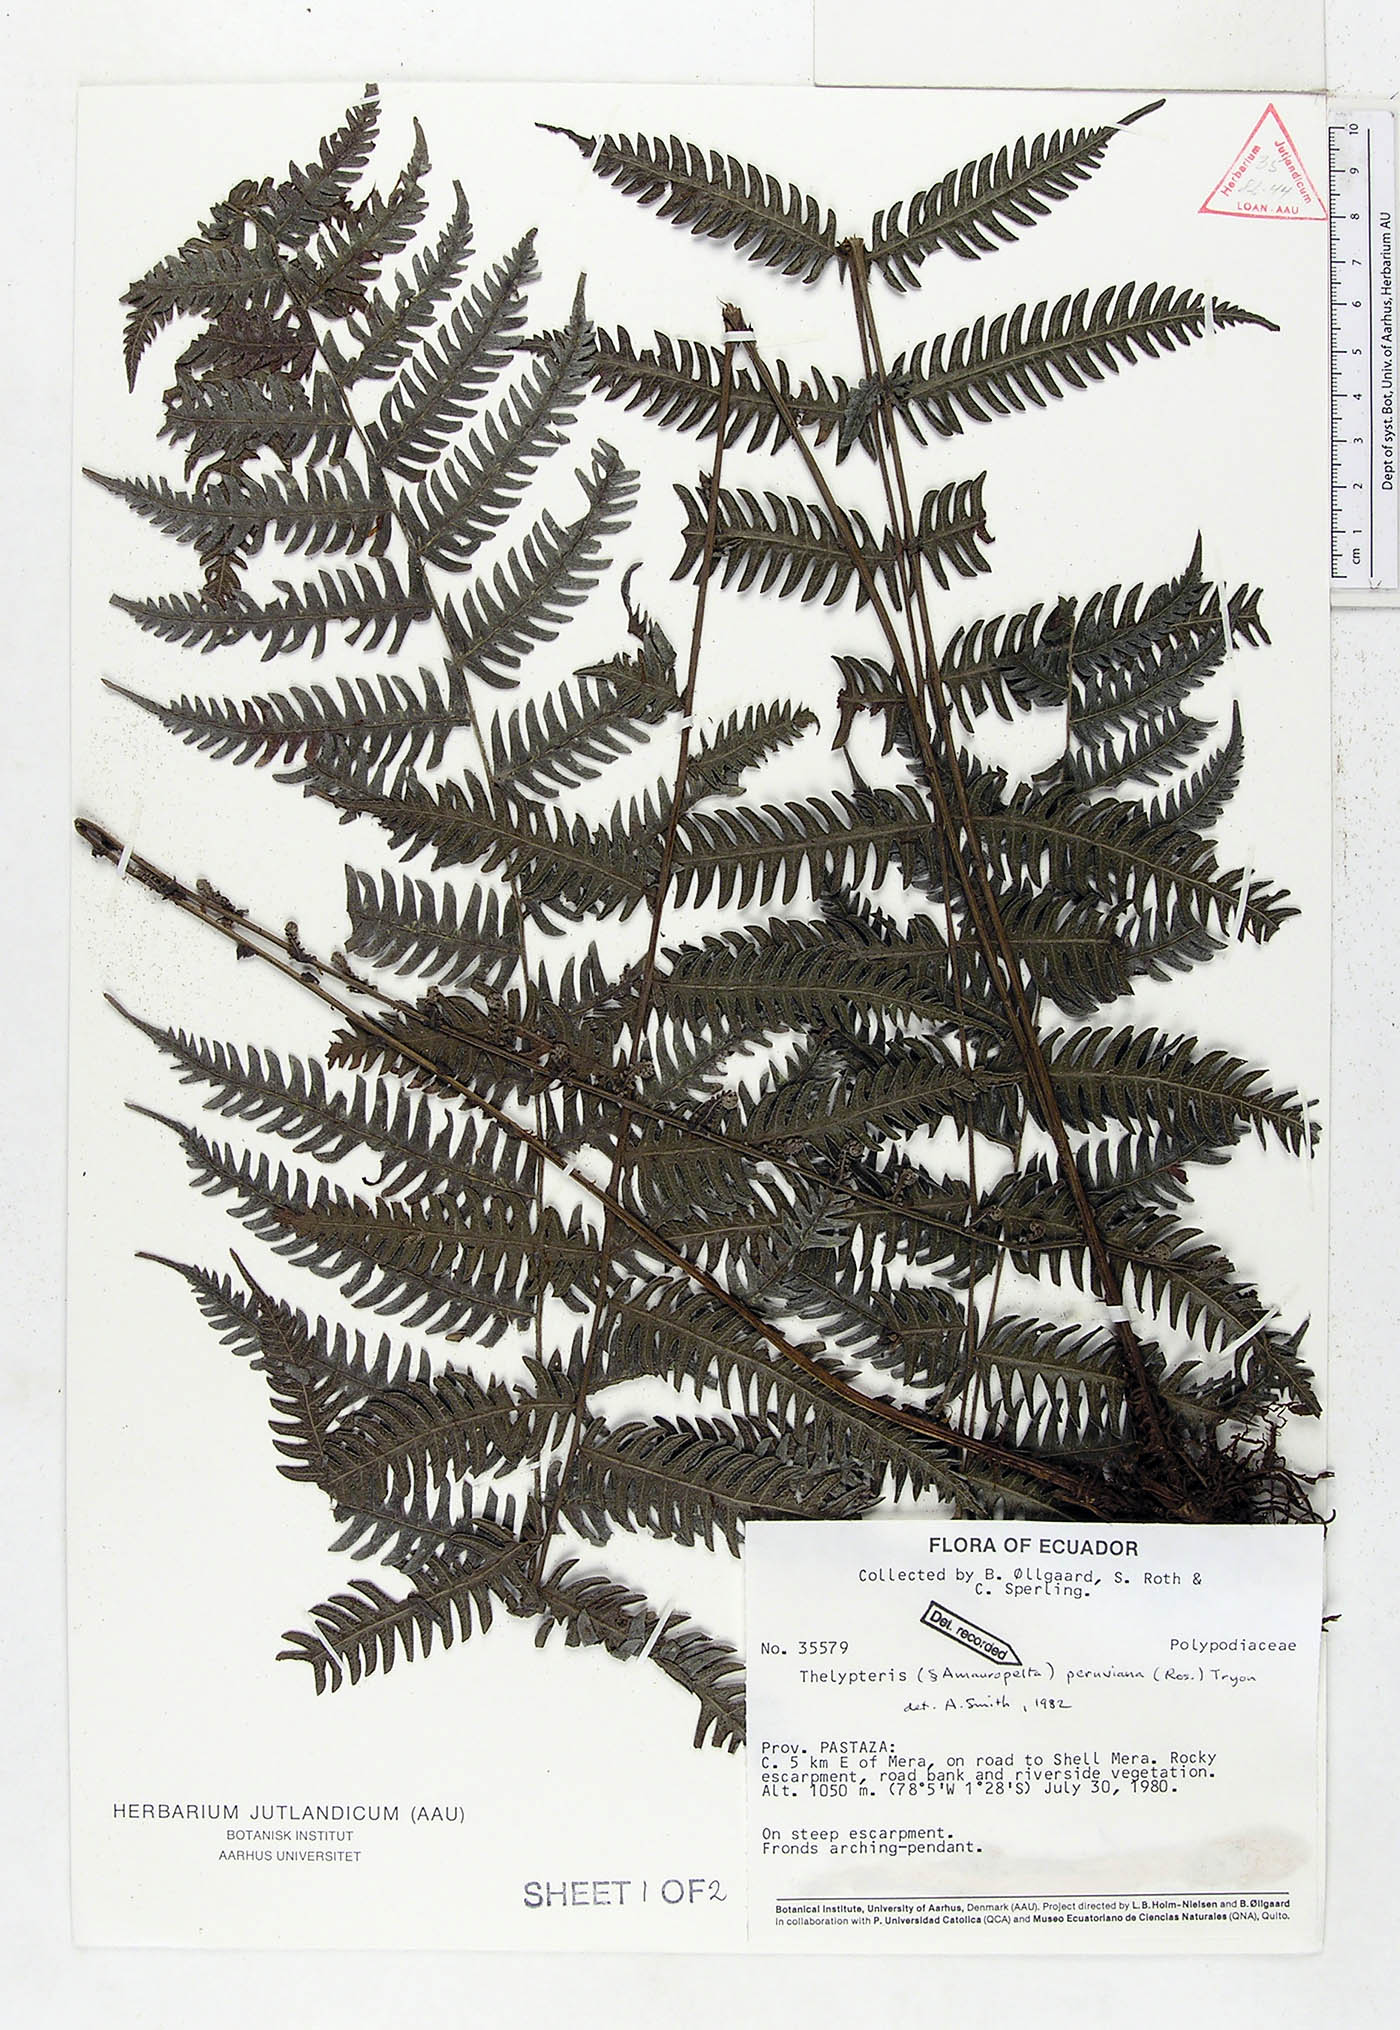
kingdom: Plantae
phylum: Tracheophyta
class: Polypodiopsida
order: Polypodiales
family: Thelypteridaceae
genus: Amauropelta
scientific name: Amauropelta peruviana
